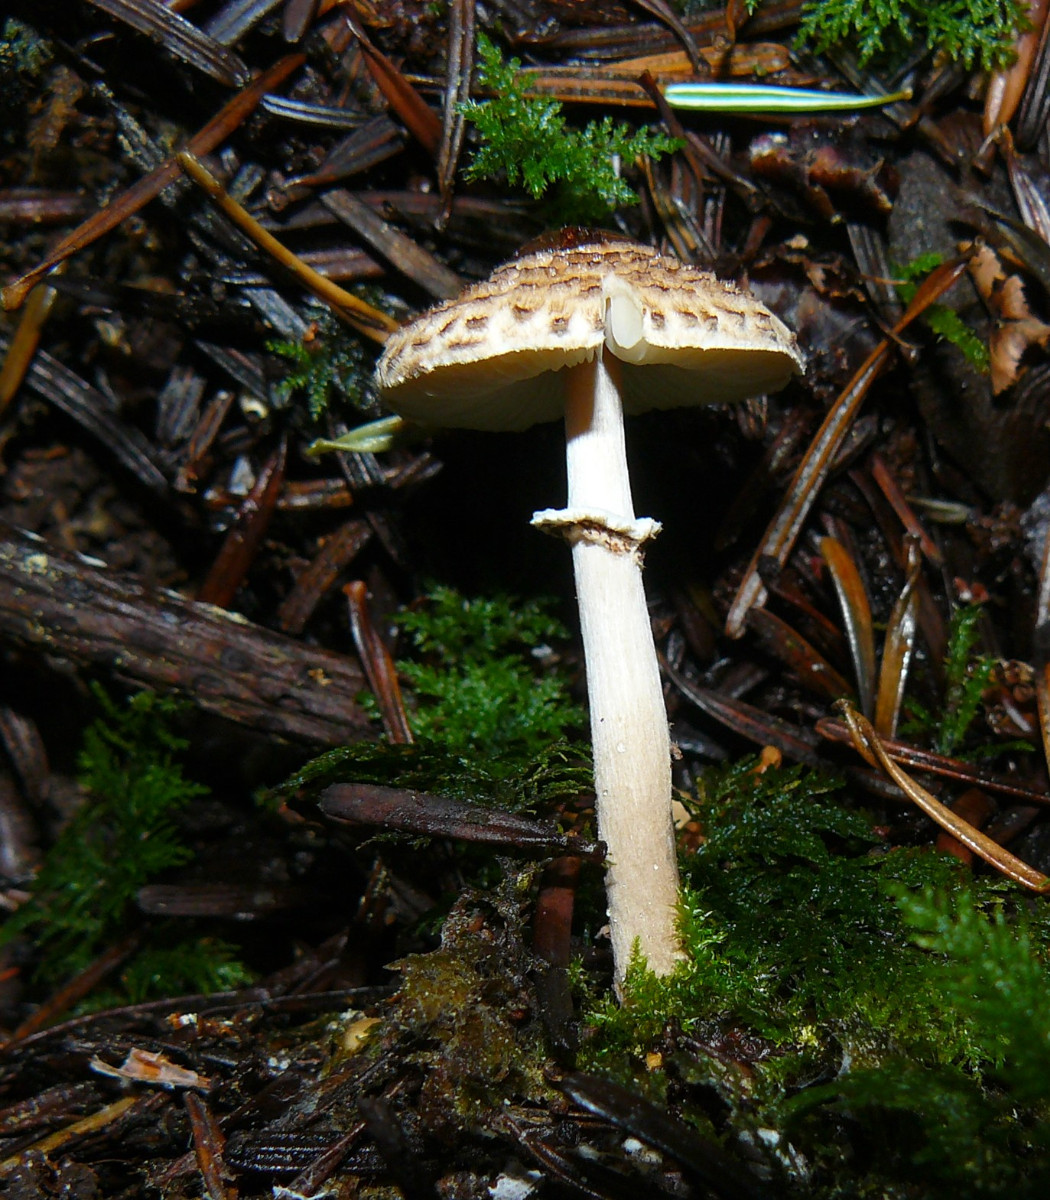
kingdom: Fungi
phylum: Basidiomycota
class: Agaricomycetes
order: Agaricales
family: Agaricaceae
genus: Lepiota
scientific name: Lepiota felina
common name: sortskællet parasolhat
